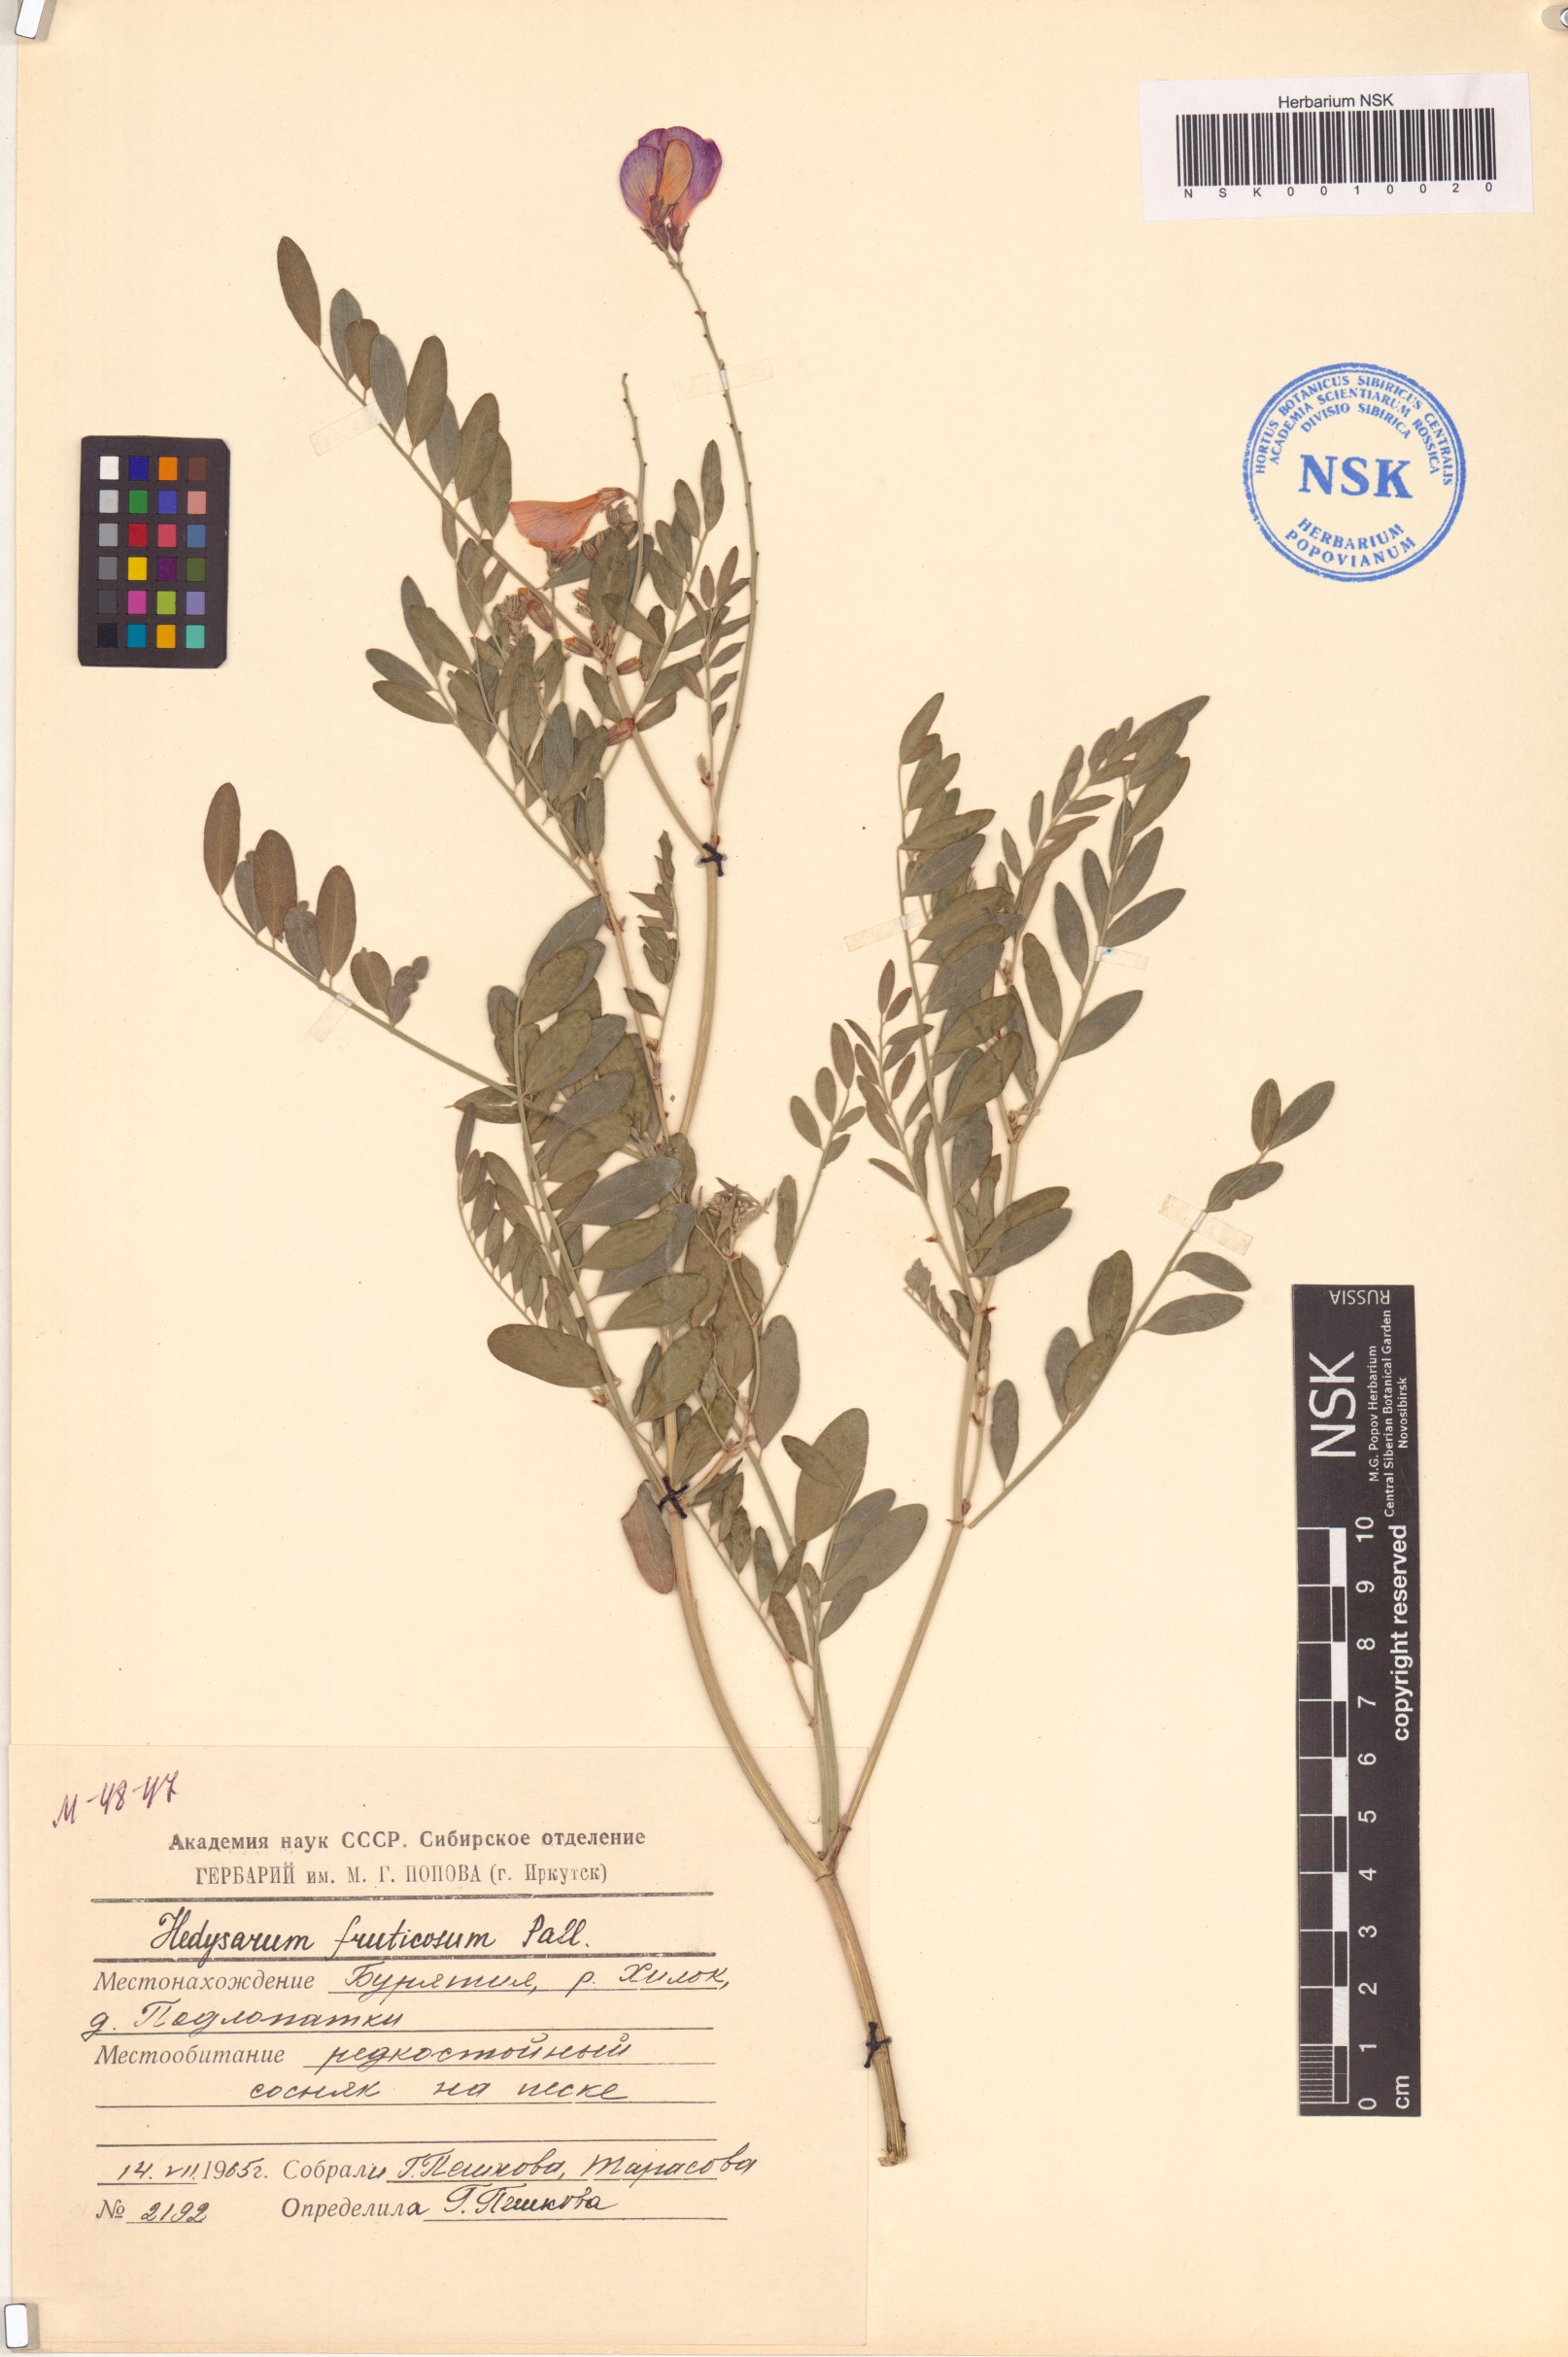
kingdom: Plantae
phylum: Tracheophyta
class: Magnoliopsida
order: Fabales
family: Fabaceae
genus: Corethrodendron
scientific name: Corethrodendron fruticosum
